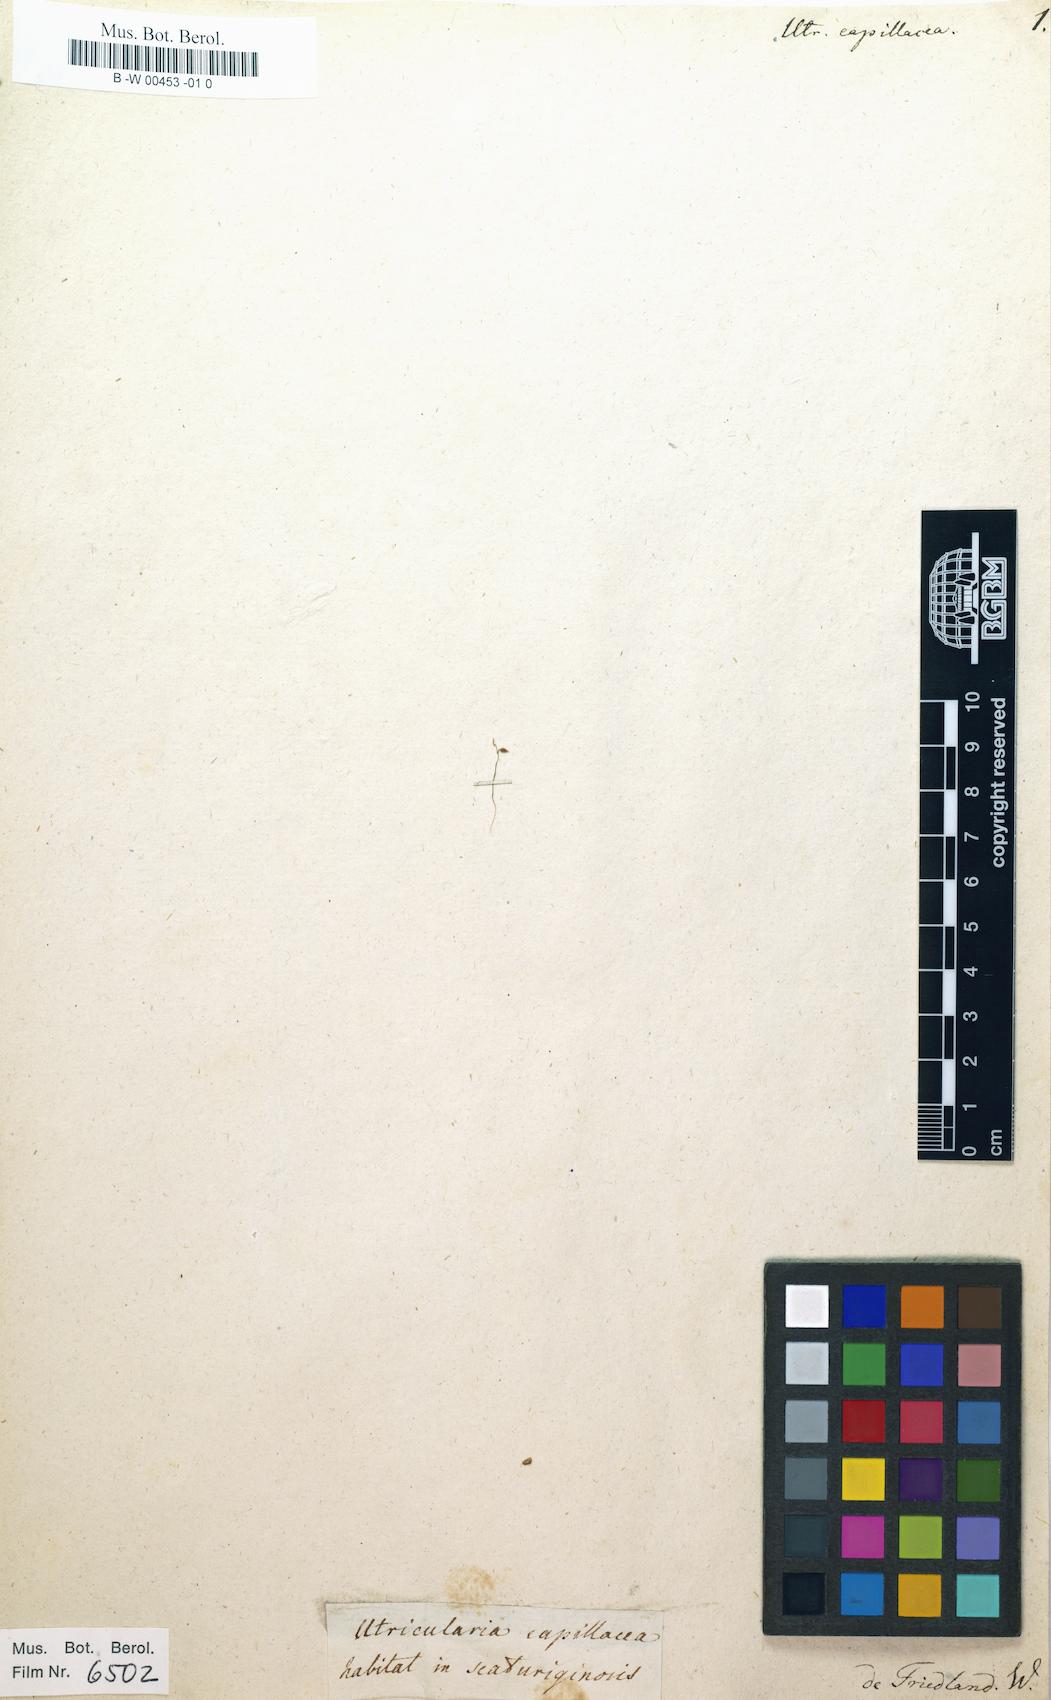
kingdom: Plantae
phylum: Tracheophyta
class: Magnoliopsida
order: Lamiales
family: Lentibulariaceae
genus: Utricularia
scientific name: Utricularia bifida
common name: Bifid bladderwort
